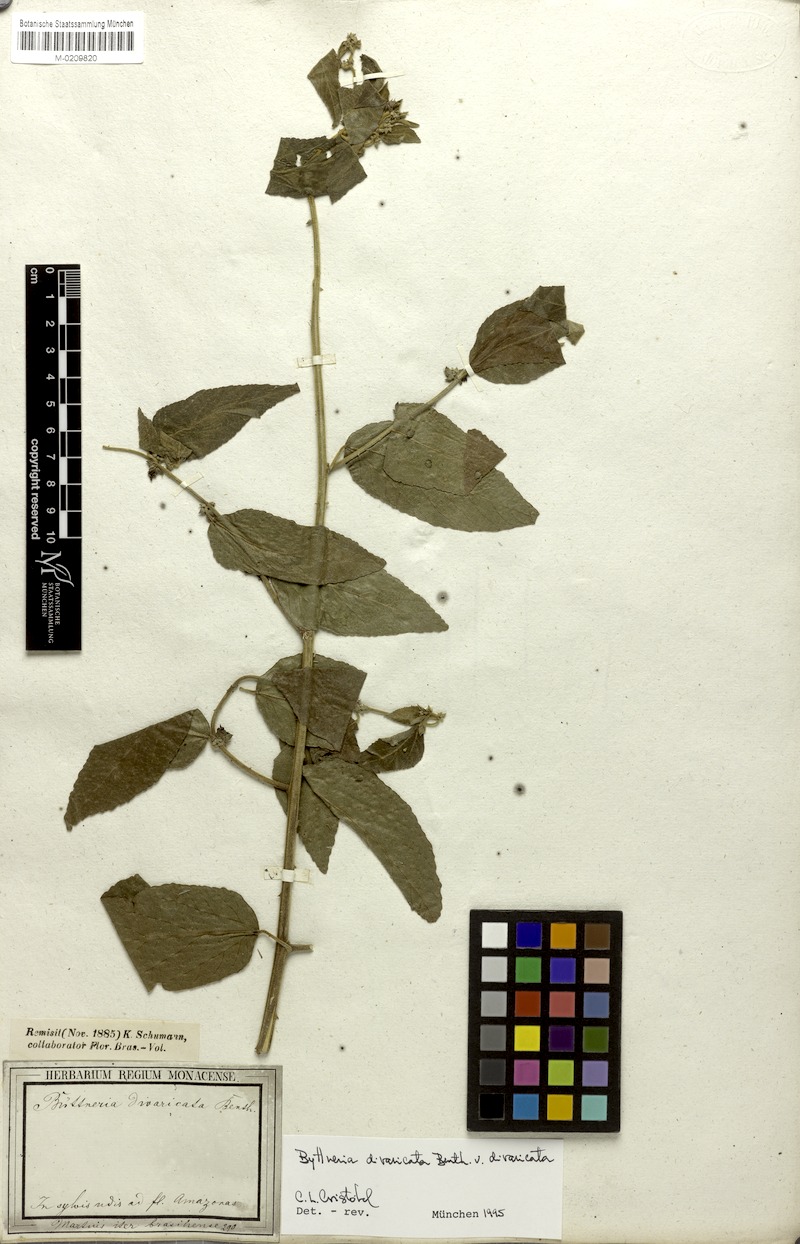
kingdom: Plantae
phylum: Tracheophyta
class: Magnoliopsida
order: Malvales
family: Malvaceae
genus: Byttneria
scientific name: Byttneria divaricata
